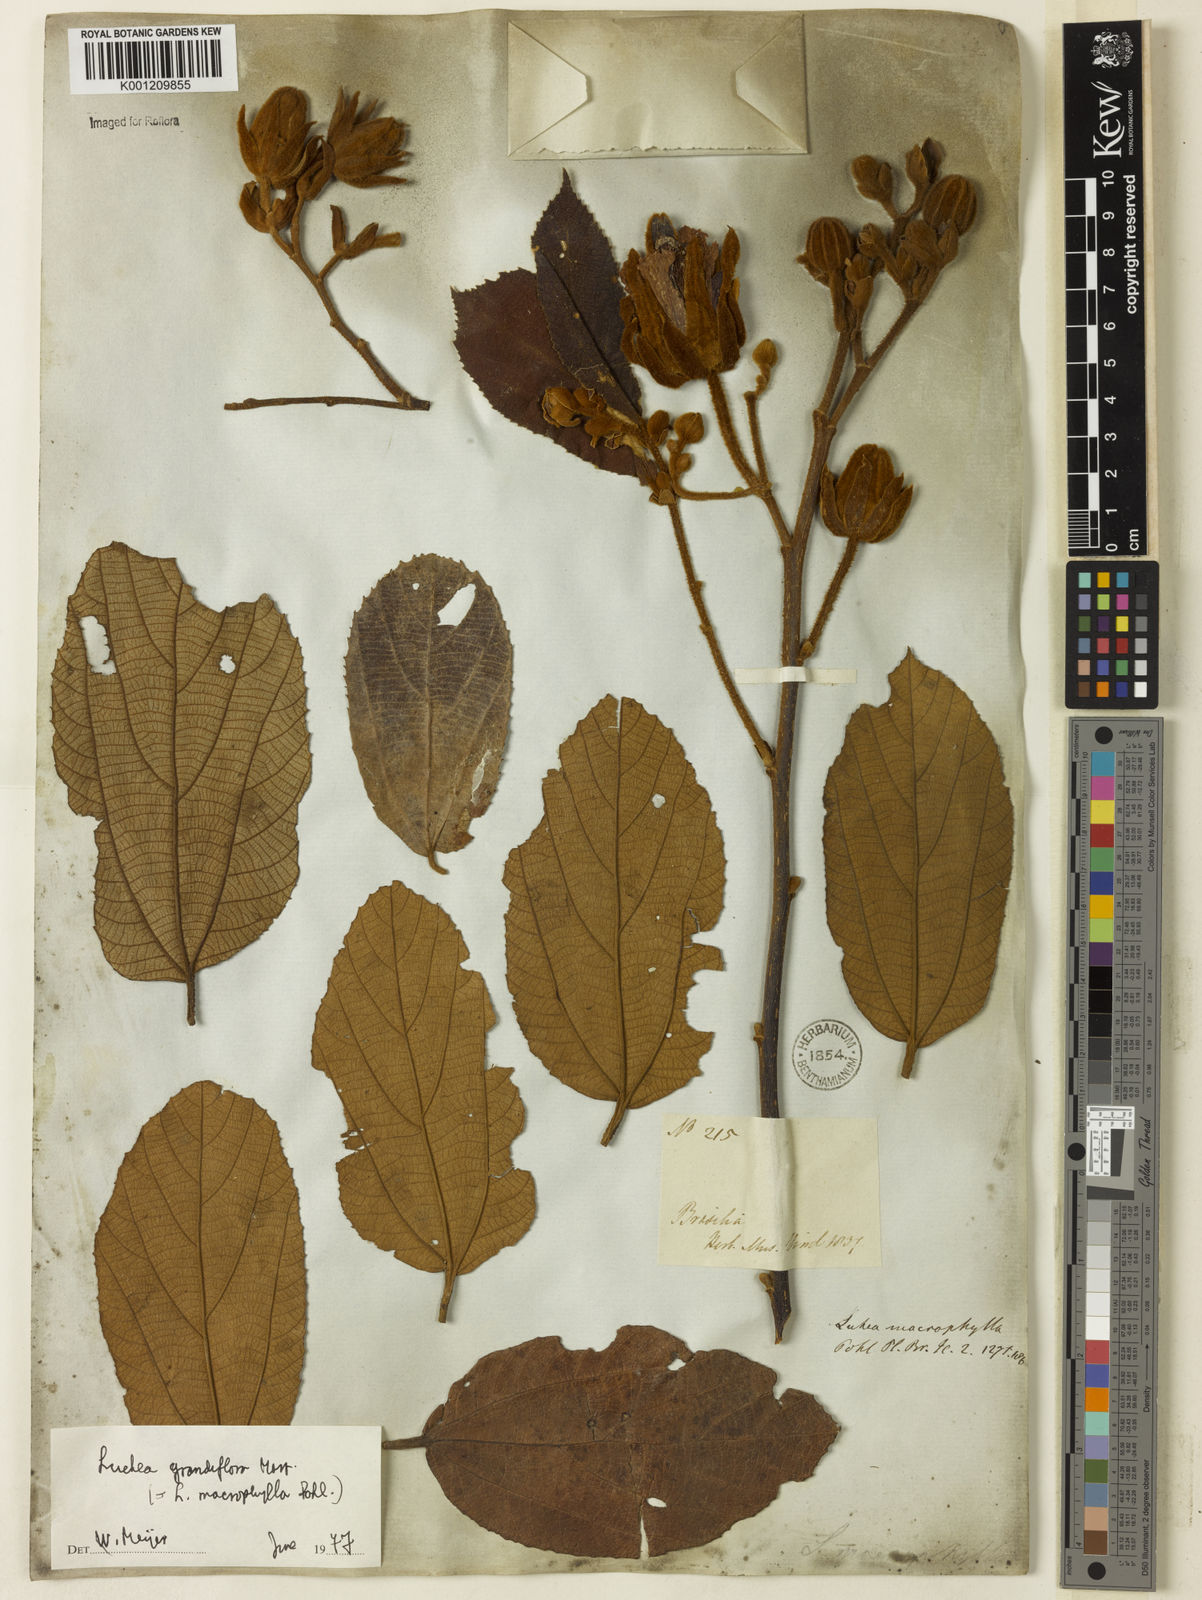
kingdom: Plantae
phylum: Tracheophyta
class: Magnoliopsida
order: Malvales
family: Malvaceae
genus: Luehea
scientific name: Luehea grandiflora
